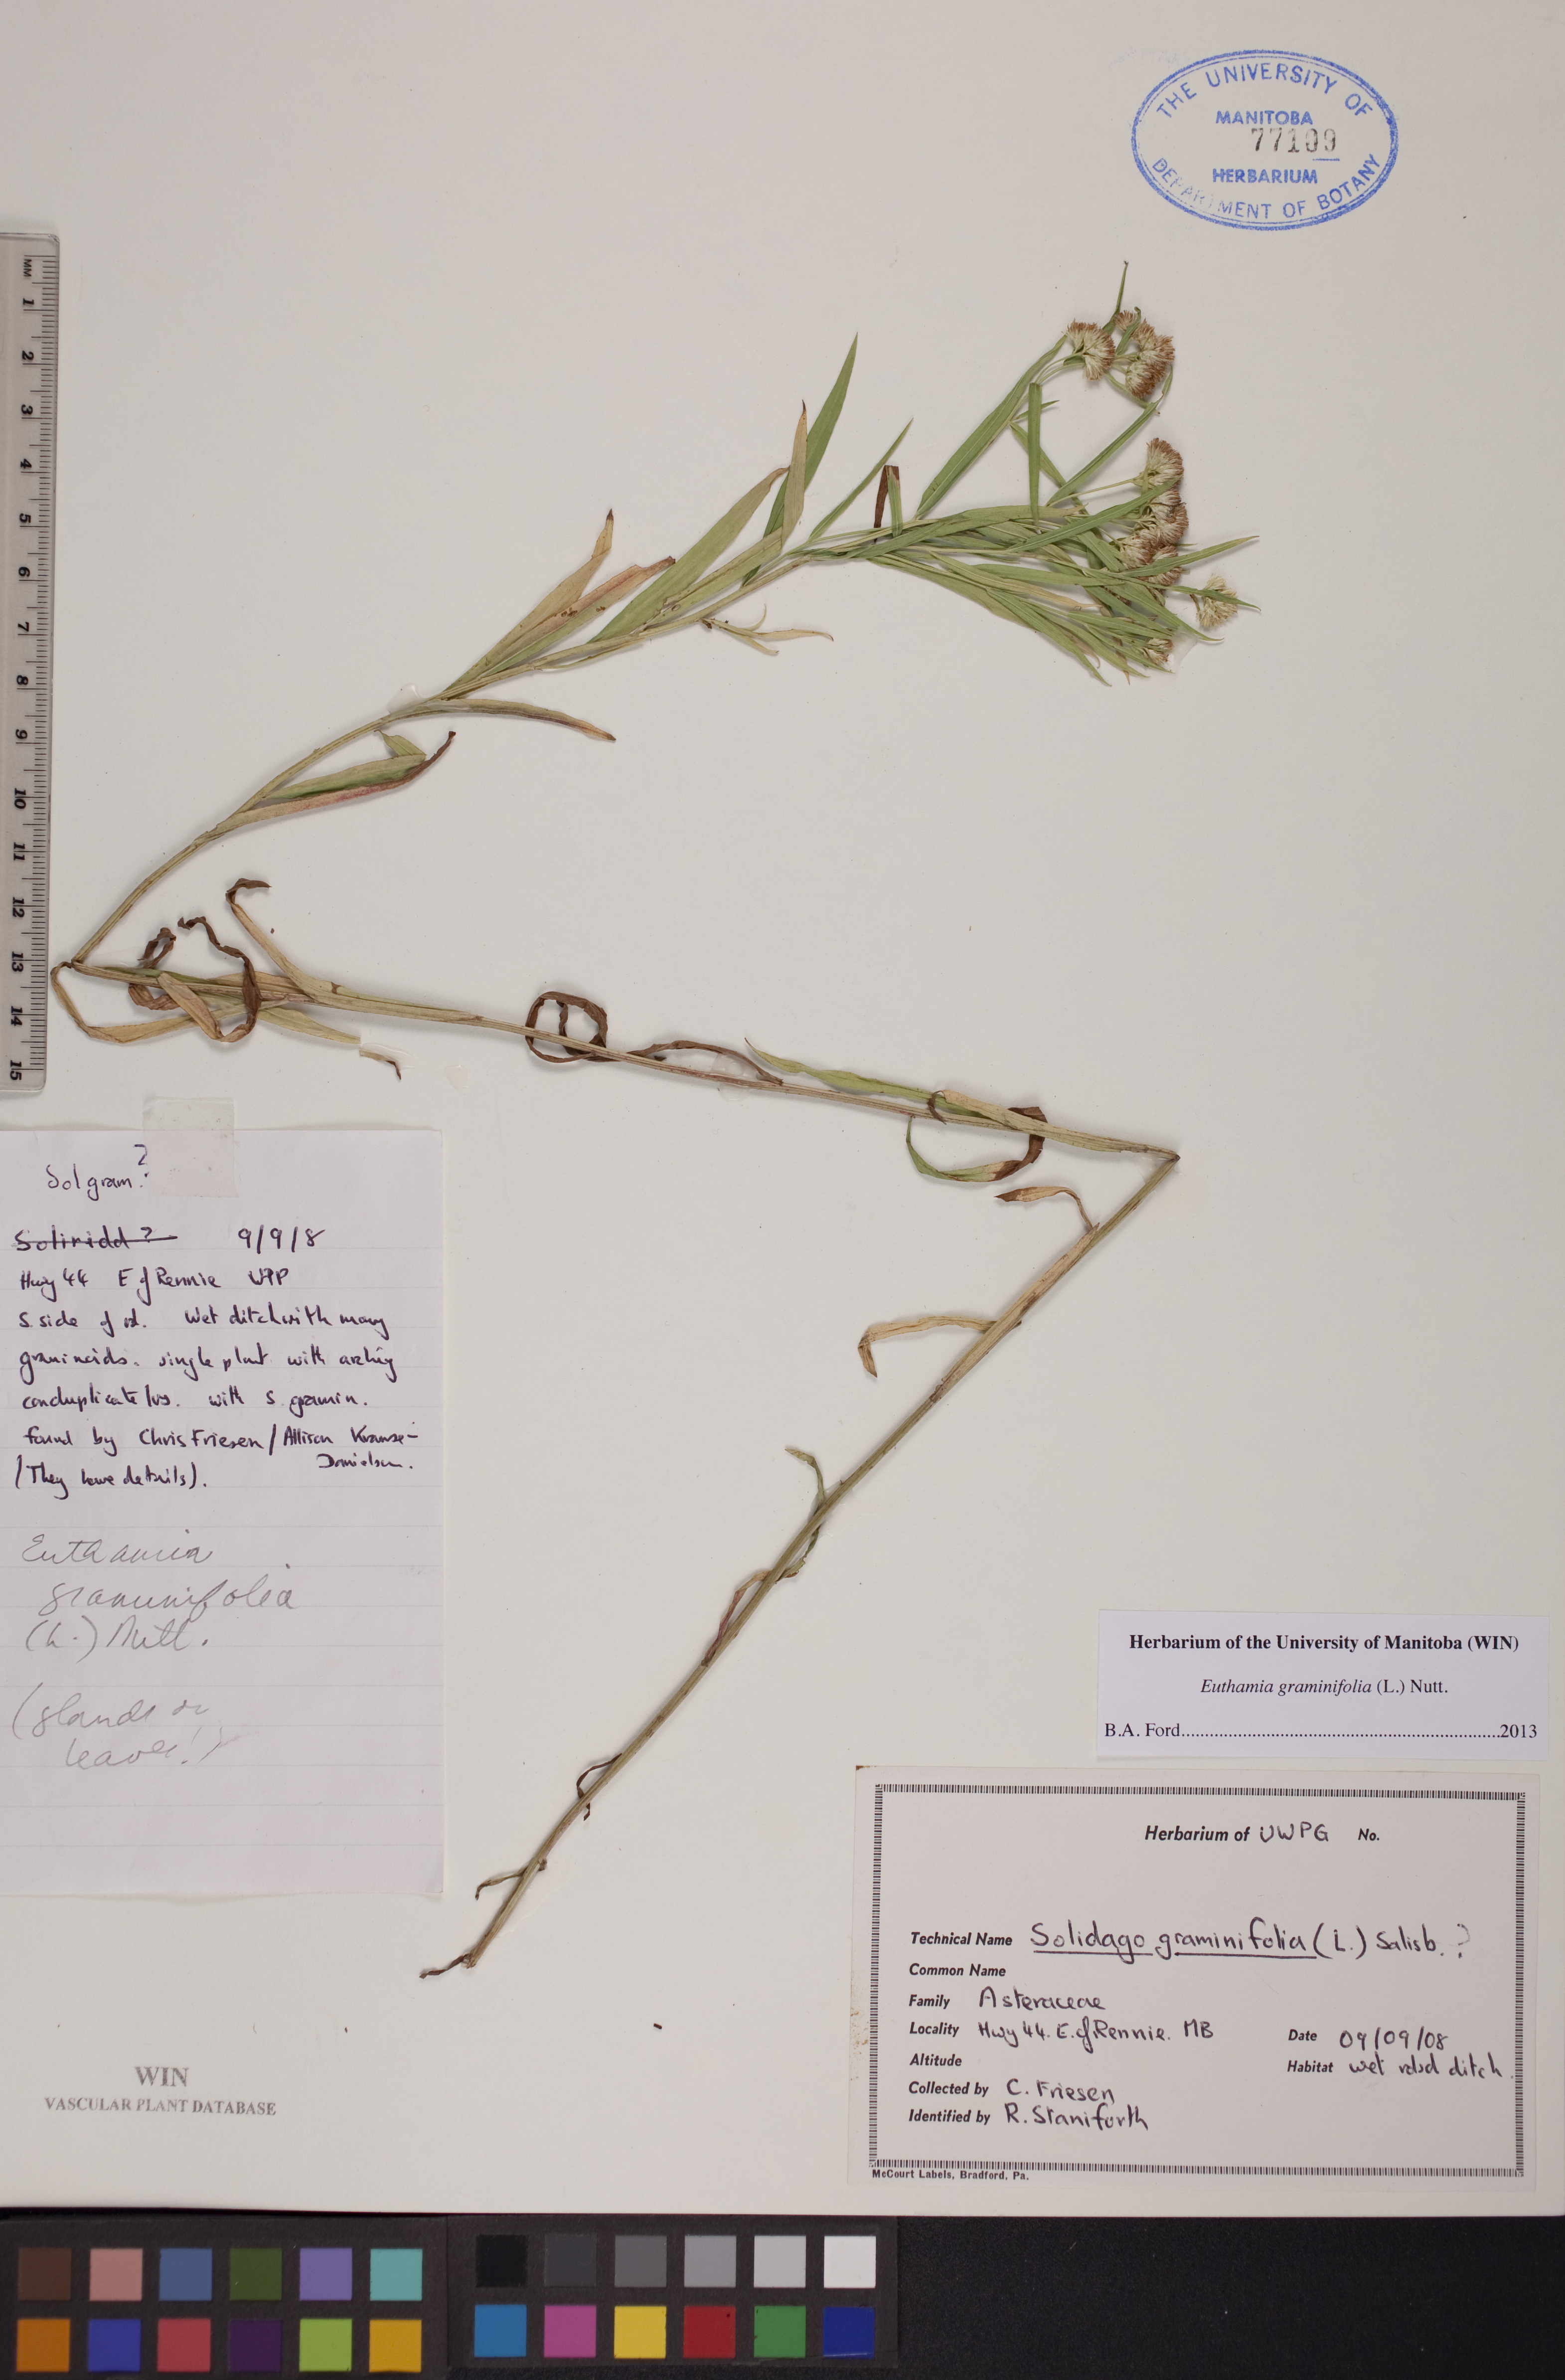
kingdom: Plantae
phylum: Tracheophyta
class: Magnoliopsida
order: Asterales
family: Asteraceae
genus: Euthamia
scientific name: Euthamia graminifolia
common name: Common goldentop
